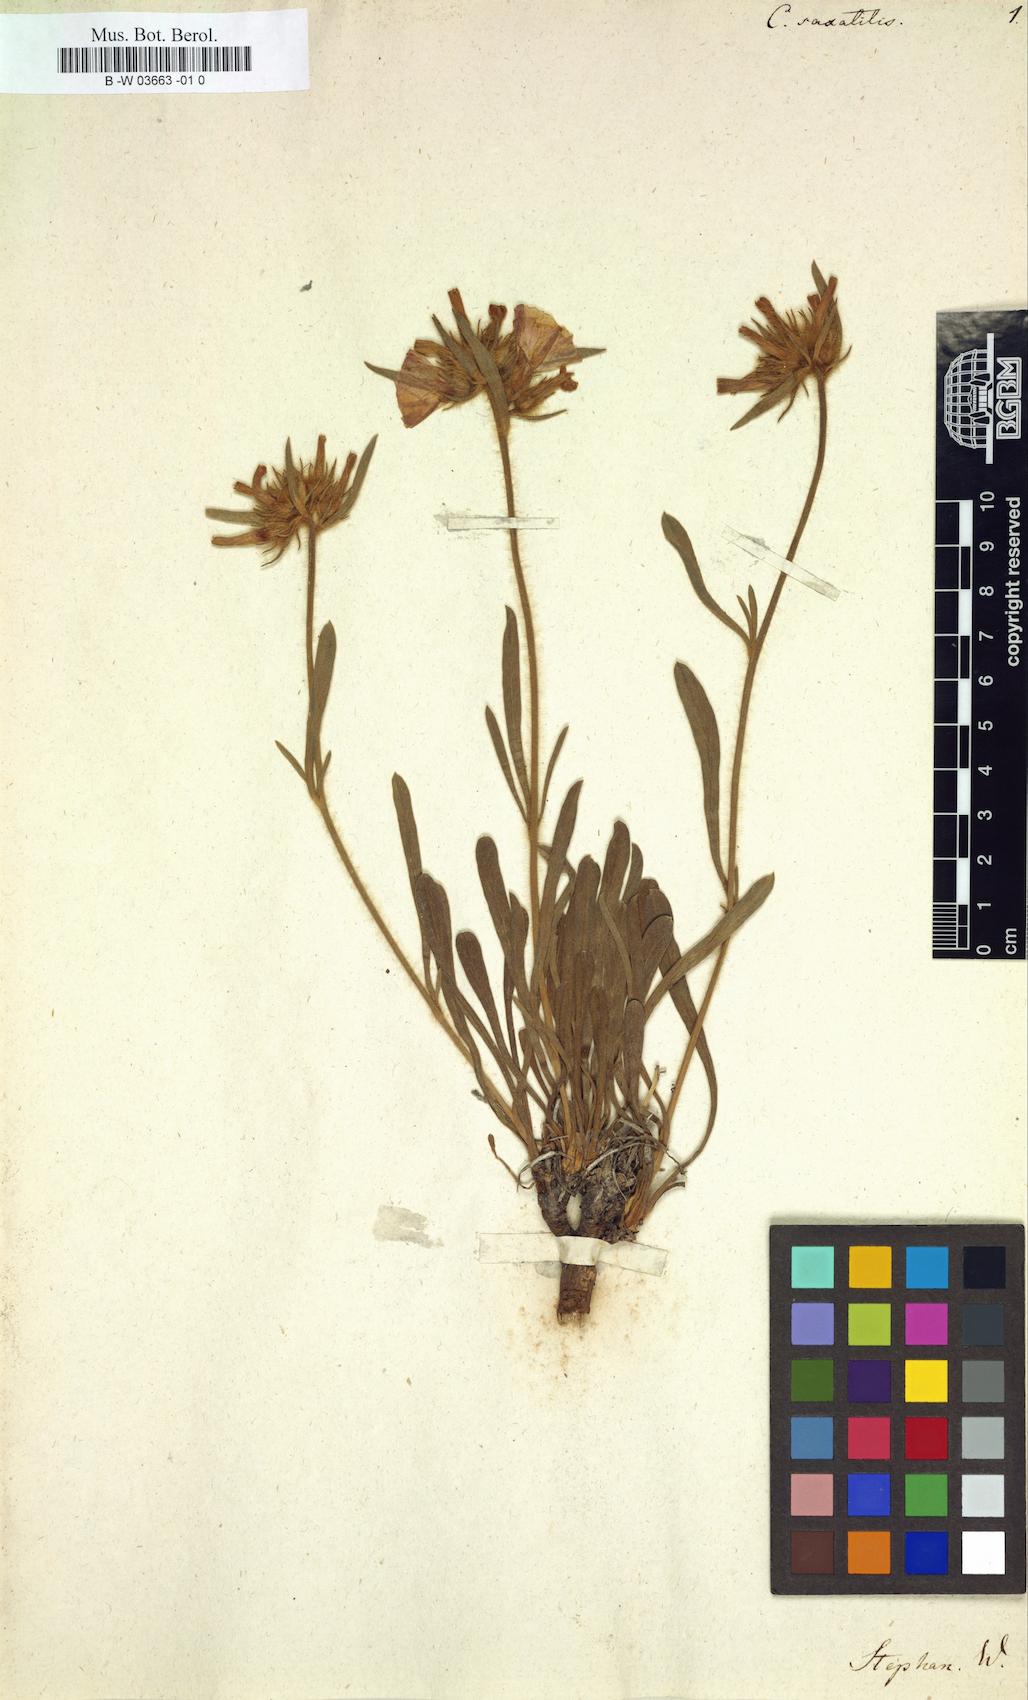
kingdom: Plantae
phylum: Tracheophyta
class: Magnoliopsida
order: Solanales
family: Convolvulaceae
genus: Convolvulus
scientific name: Convolvulus
